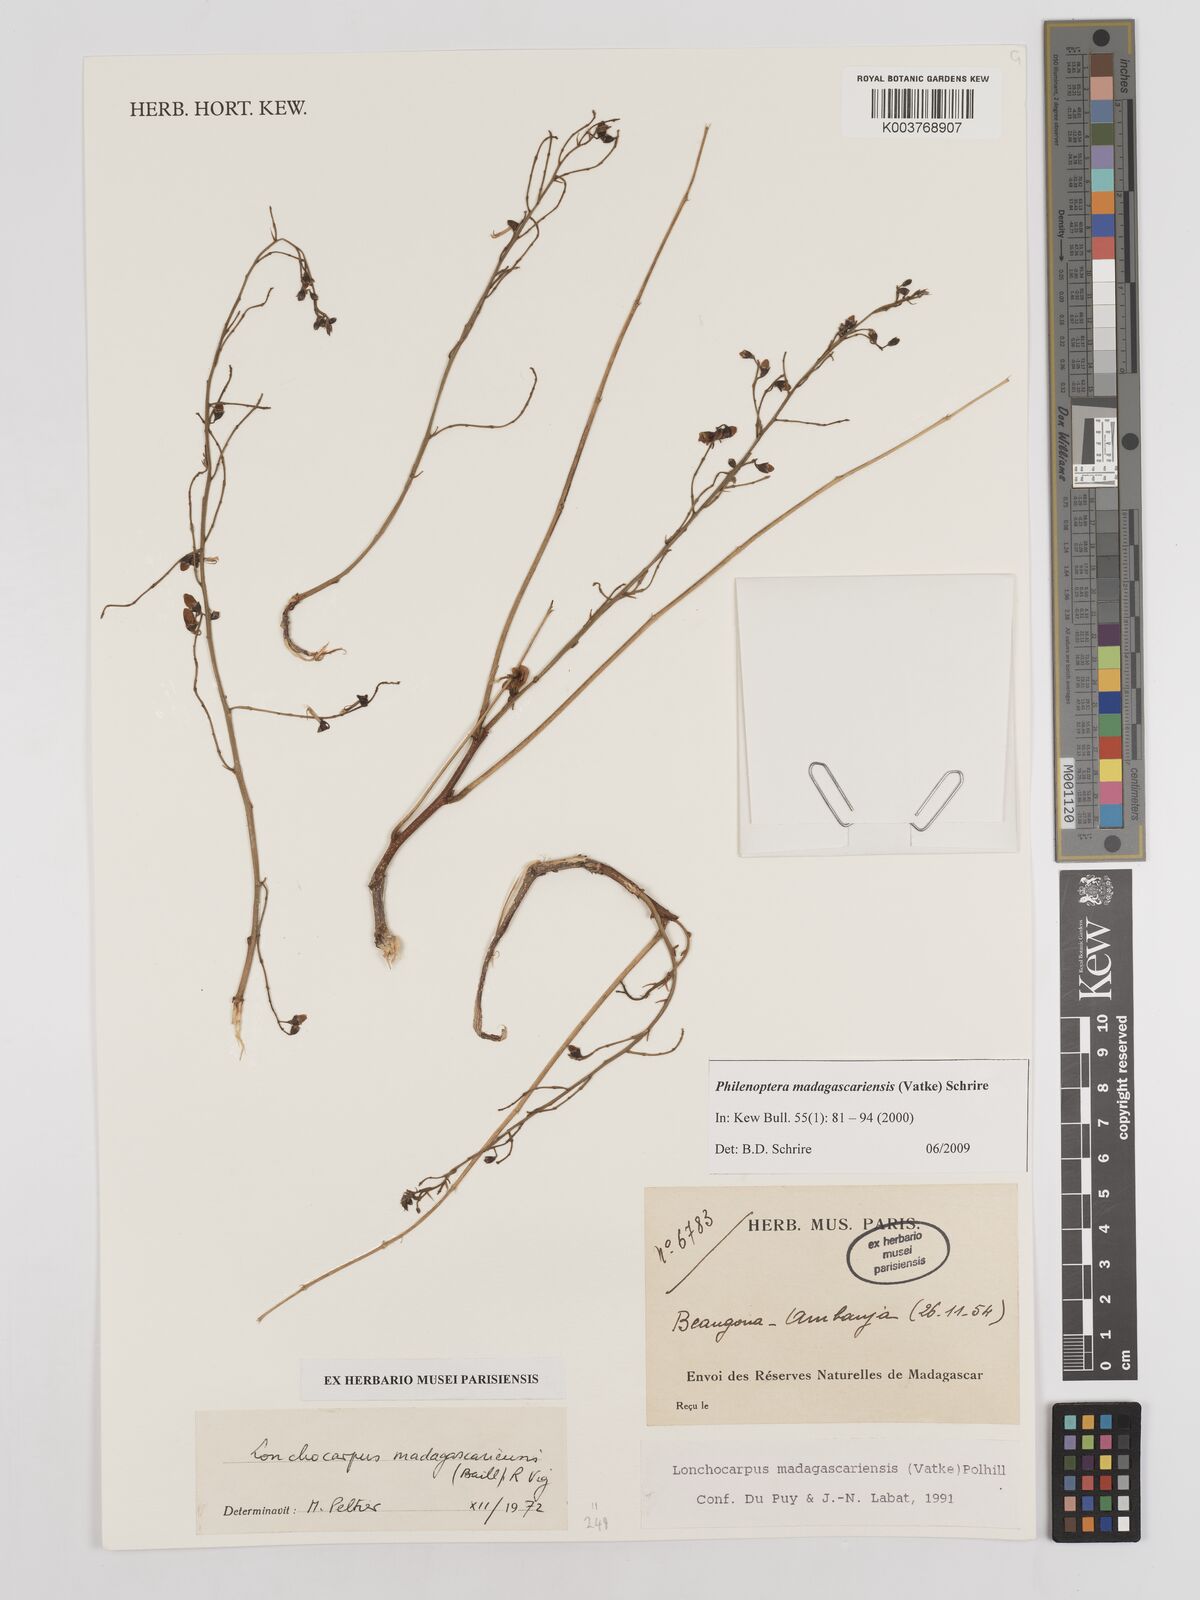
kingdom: Plantae
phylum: Tracheophyta
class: Magnoliopsida
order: Fabales
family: Fabaceae
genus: Lonchocarpus
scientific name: Lonchocarpus madagascariensis
